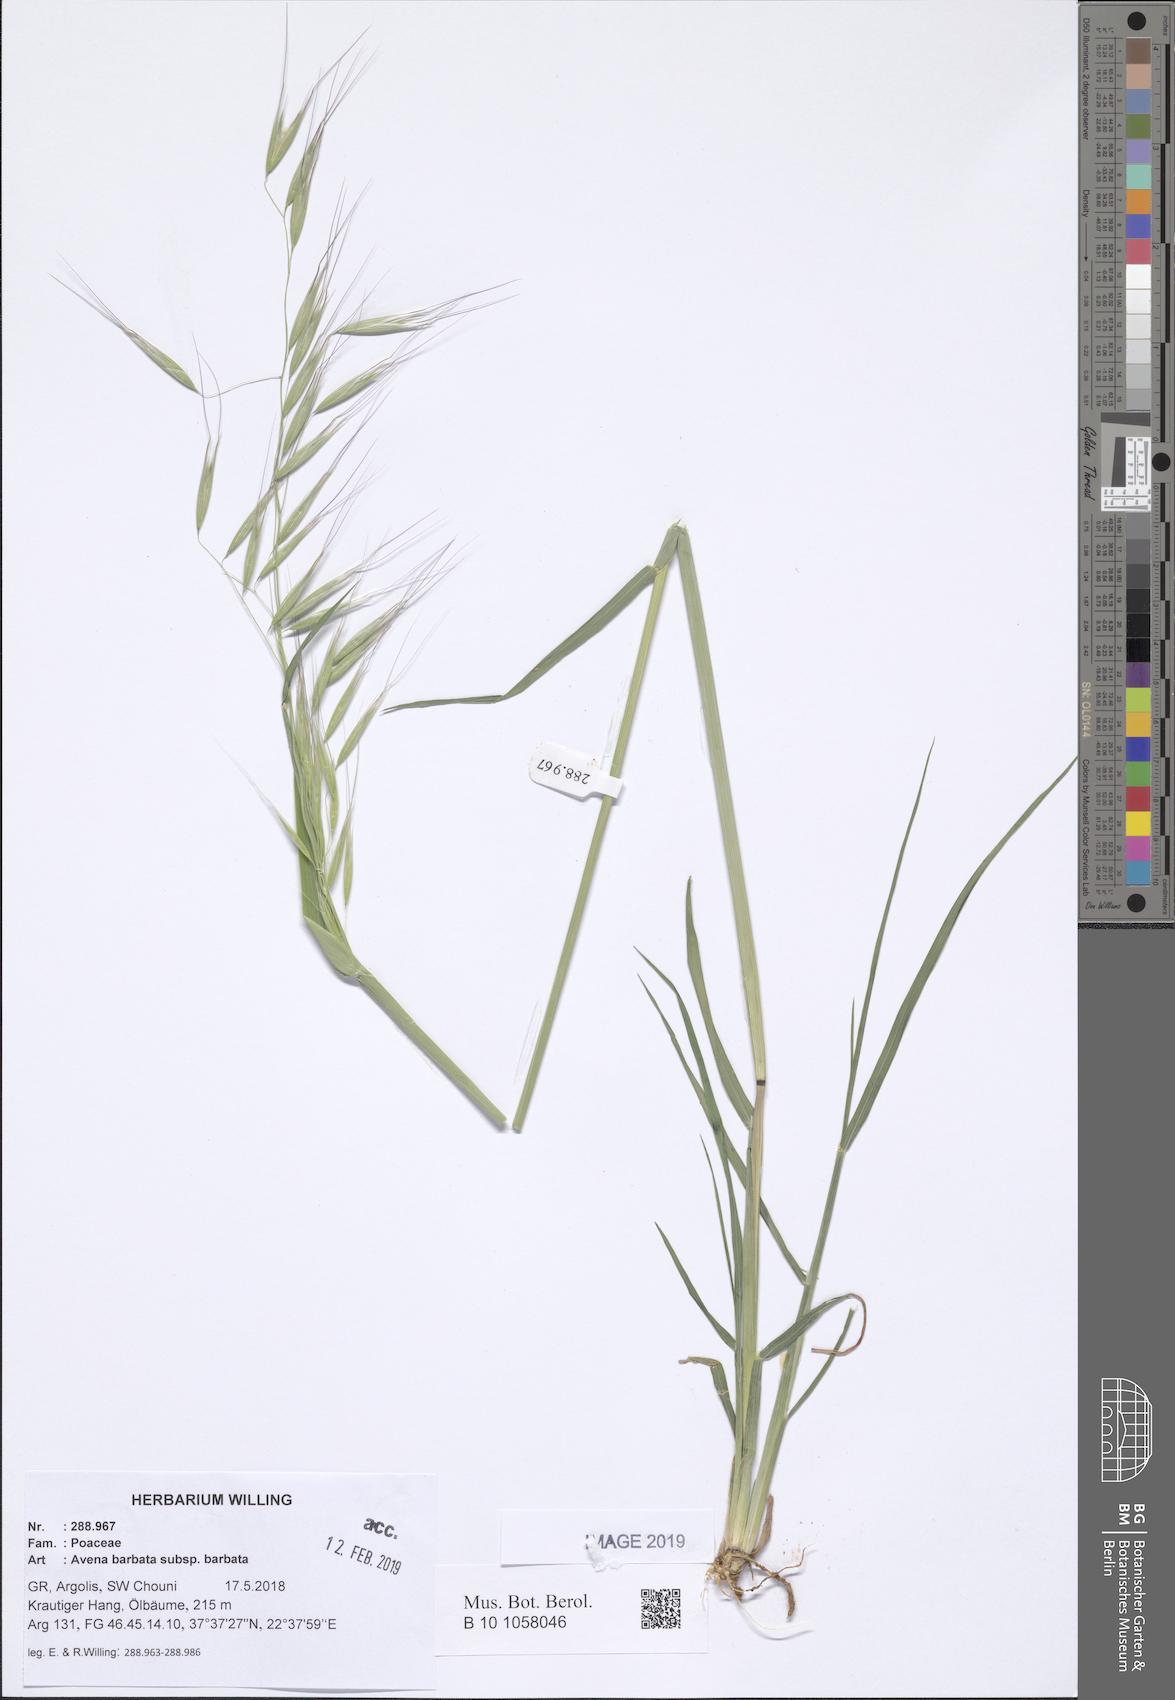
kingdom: Plantae
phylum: Tracheophyta
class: Liliopsida
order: Poales
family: Poaceae
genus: Avena
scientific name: Avena barbata
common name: Slender oat
